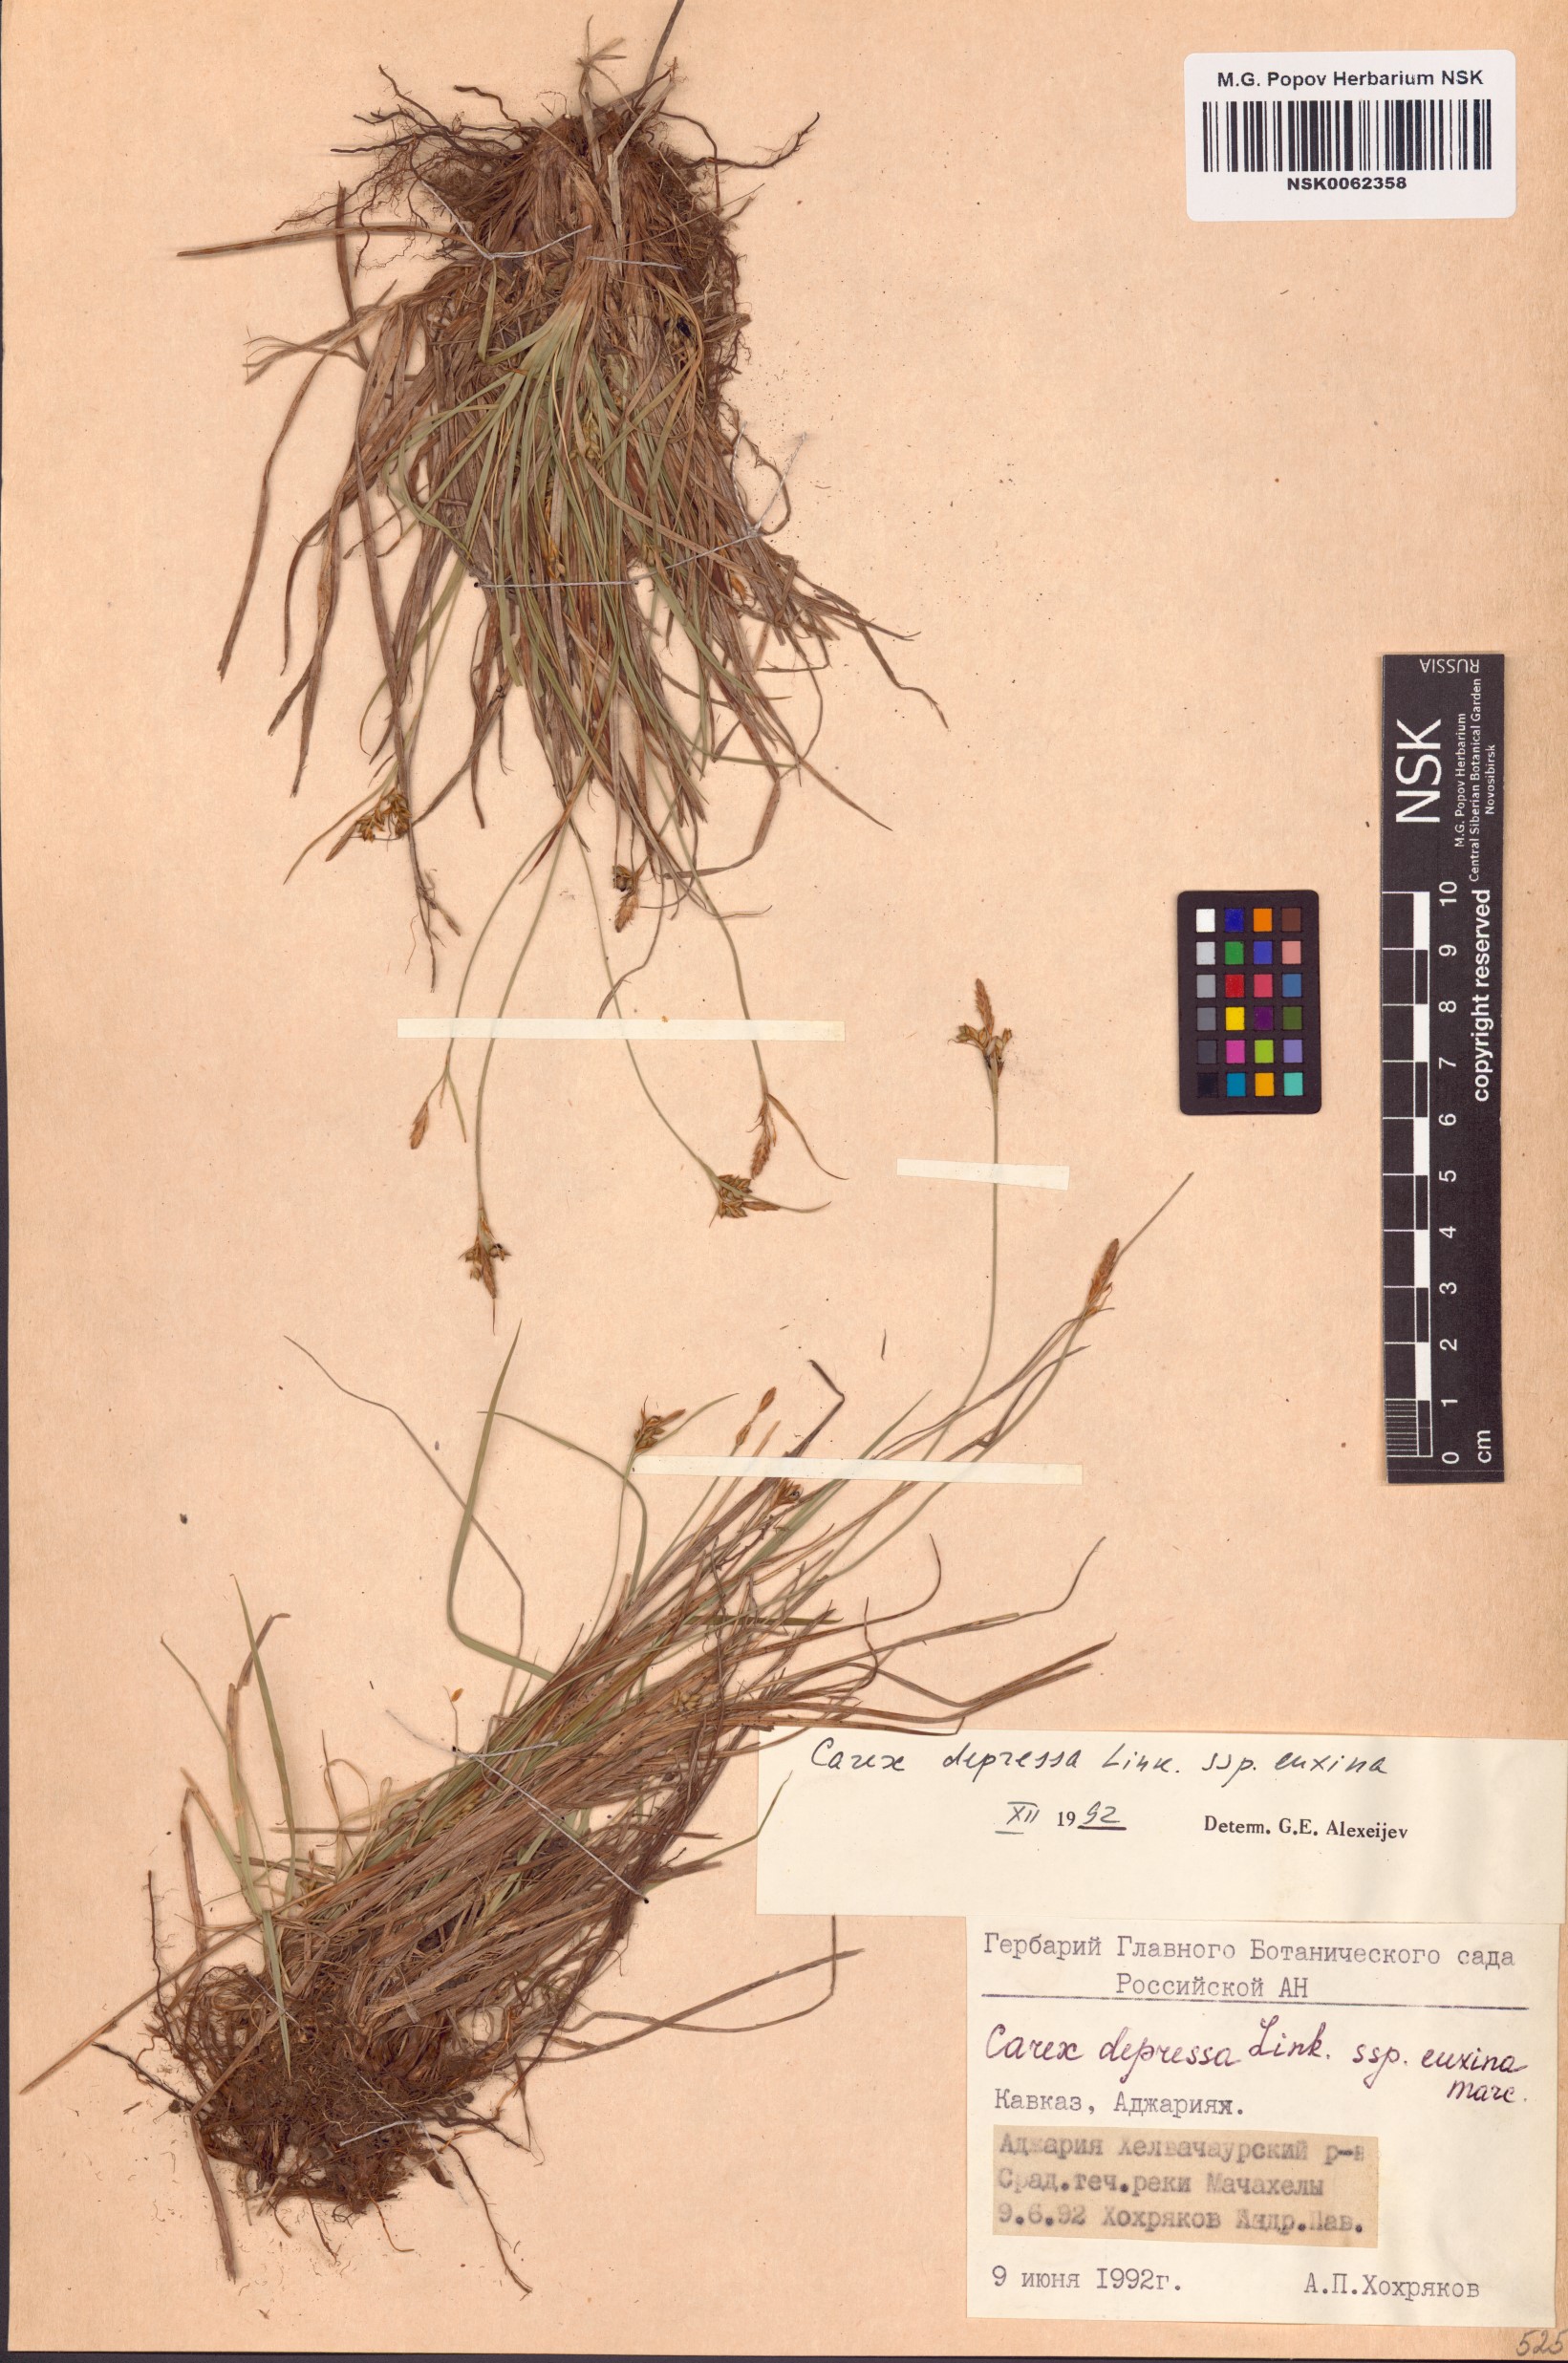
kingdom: Plantae
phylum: Tracheophyta
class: Liliopsida
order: Poales
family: Cyperaceae
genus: Carex
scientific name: Carex depressa
